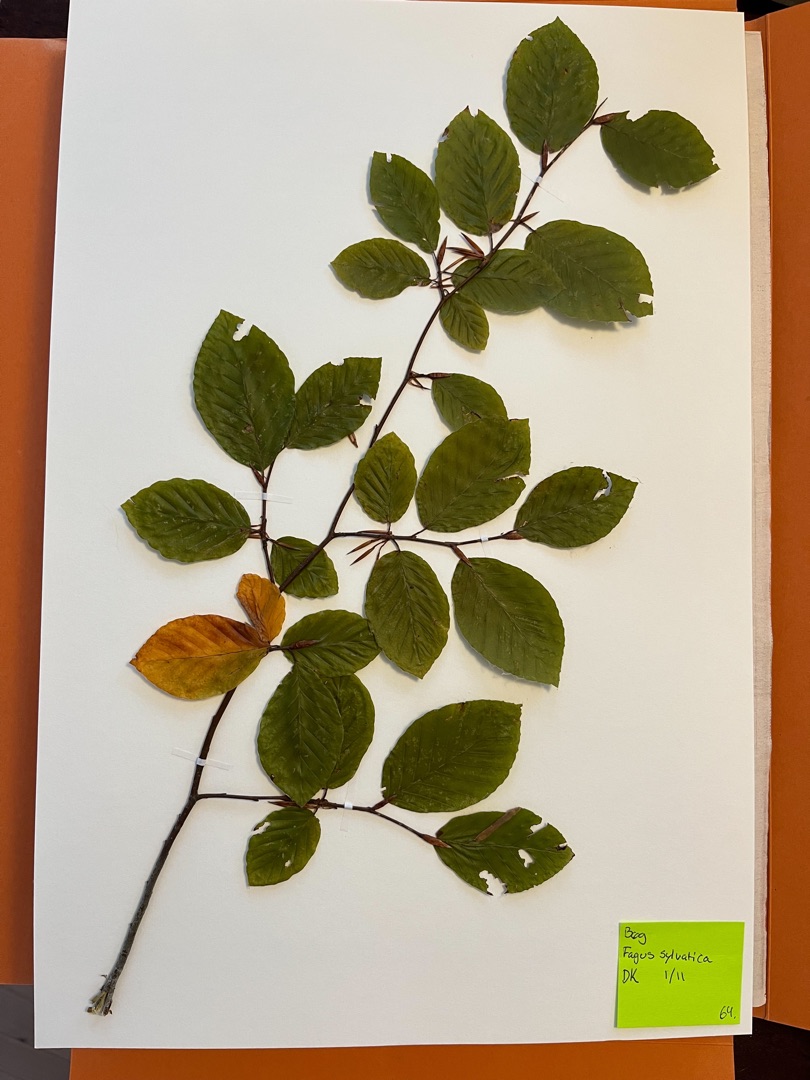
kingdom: Plantae
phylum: Tracheophyta
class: Magnoliopsida
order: Fagales
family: Fagaceae
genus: Fagus
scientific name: Fagus sylvatica
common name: Bøg
